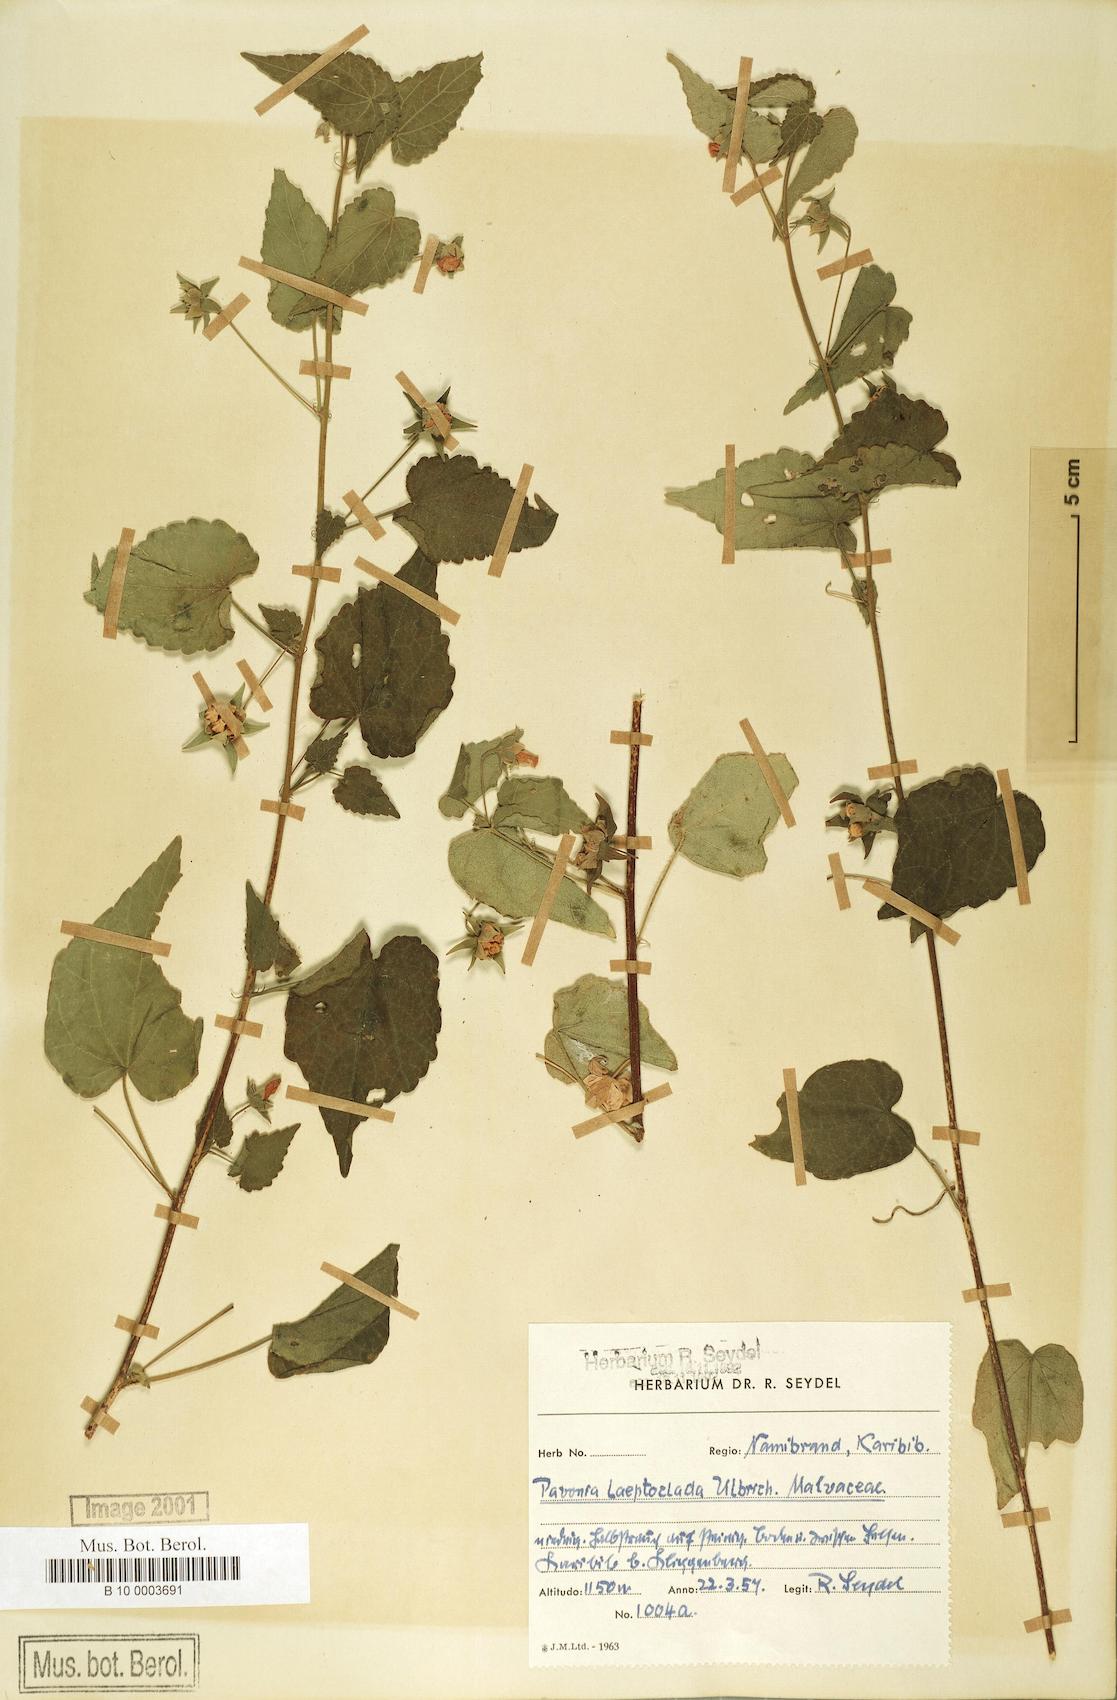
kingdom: Plantae
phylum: Tracheophyta
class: Magnoliopsida
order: Malvales
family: Malvaceae
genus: Pavonia
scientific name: Pavonia burchellii
